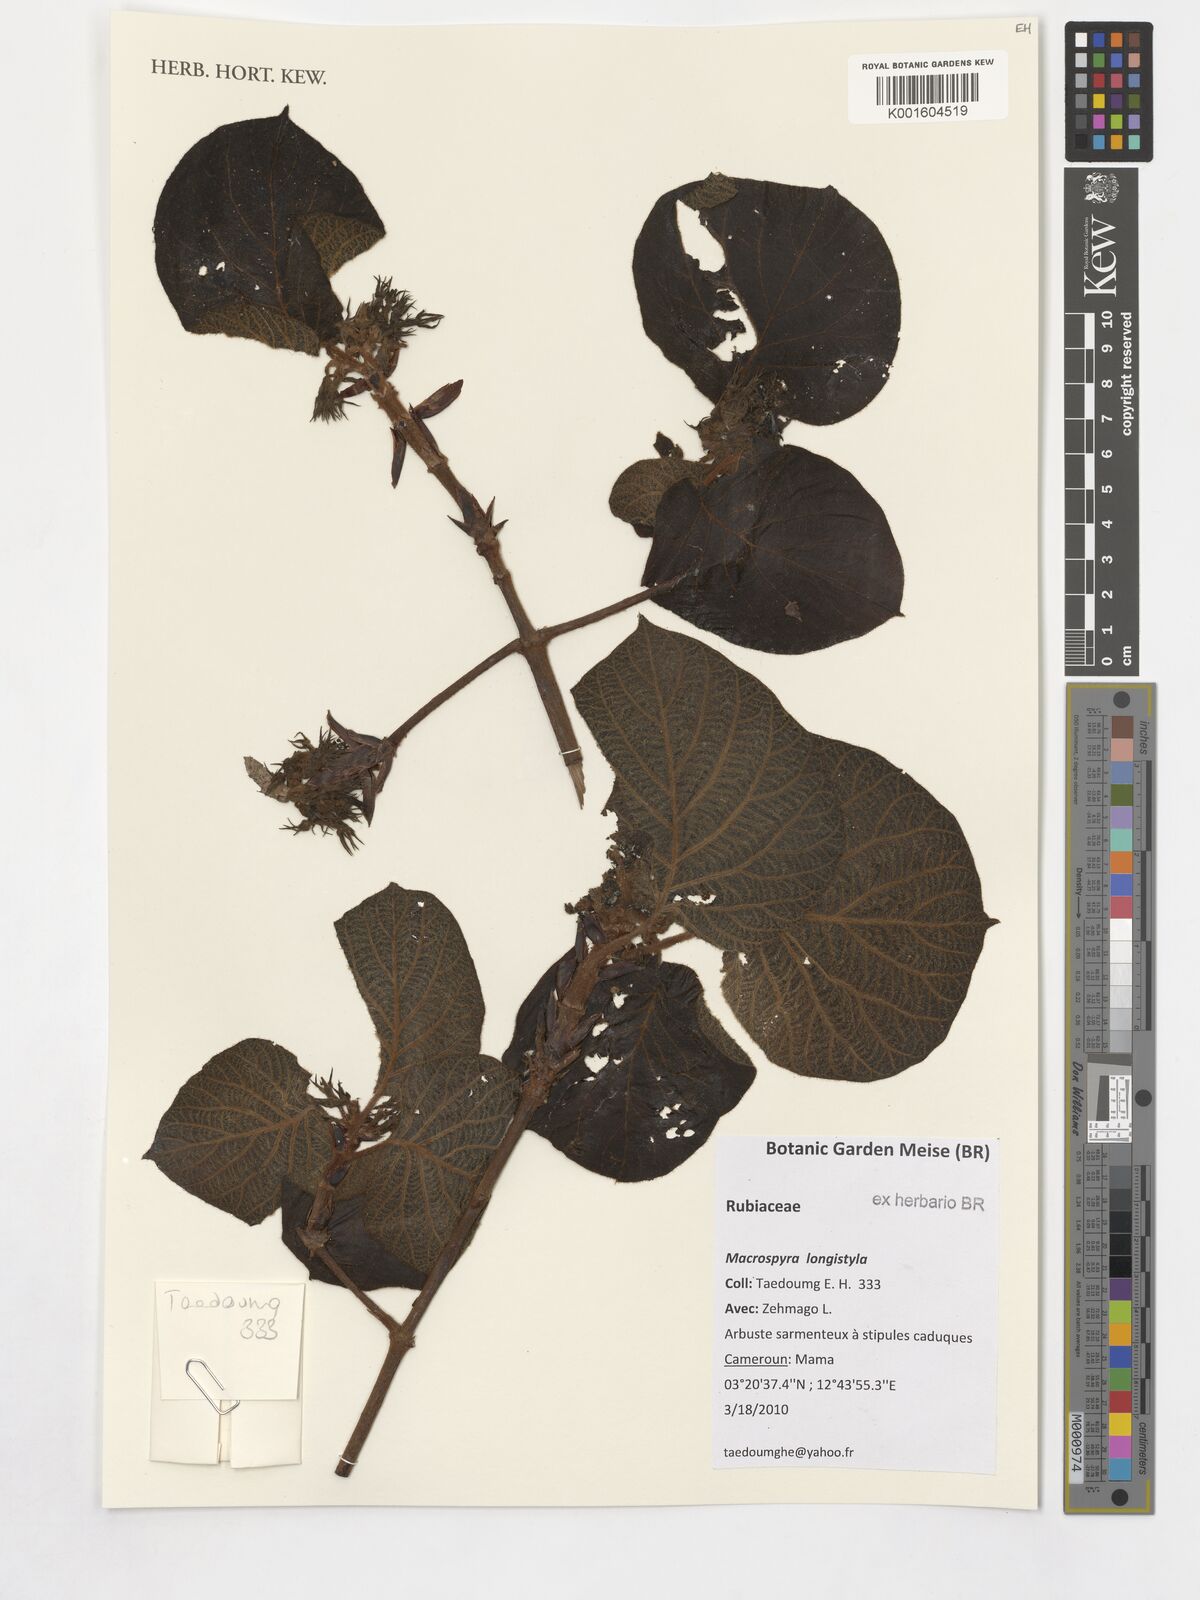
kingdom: Plantae
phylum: Tracheophyta
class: Magnoliopsida
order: Gentianales
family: Rubiaceae
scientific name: Rubiaceae
